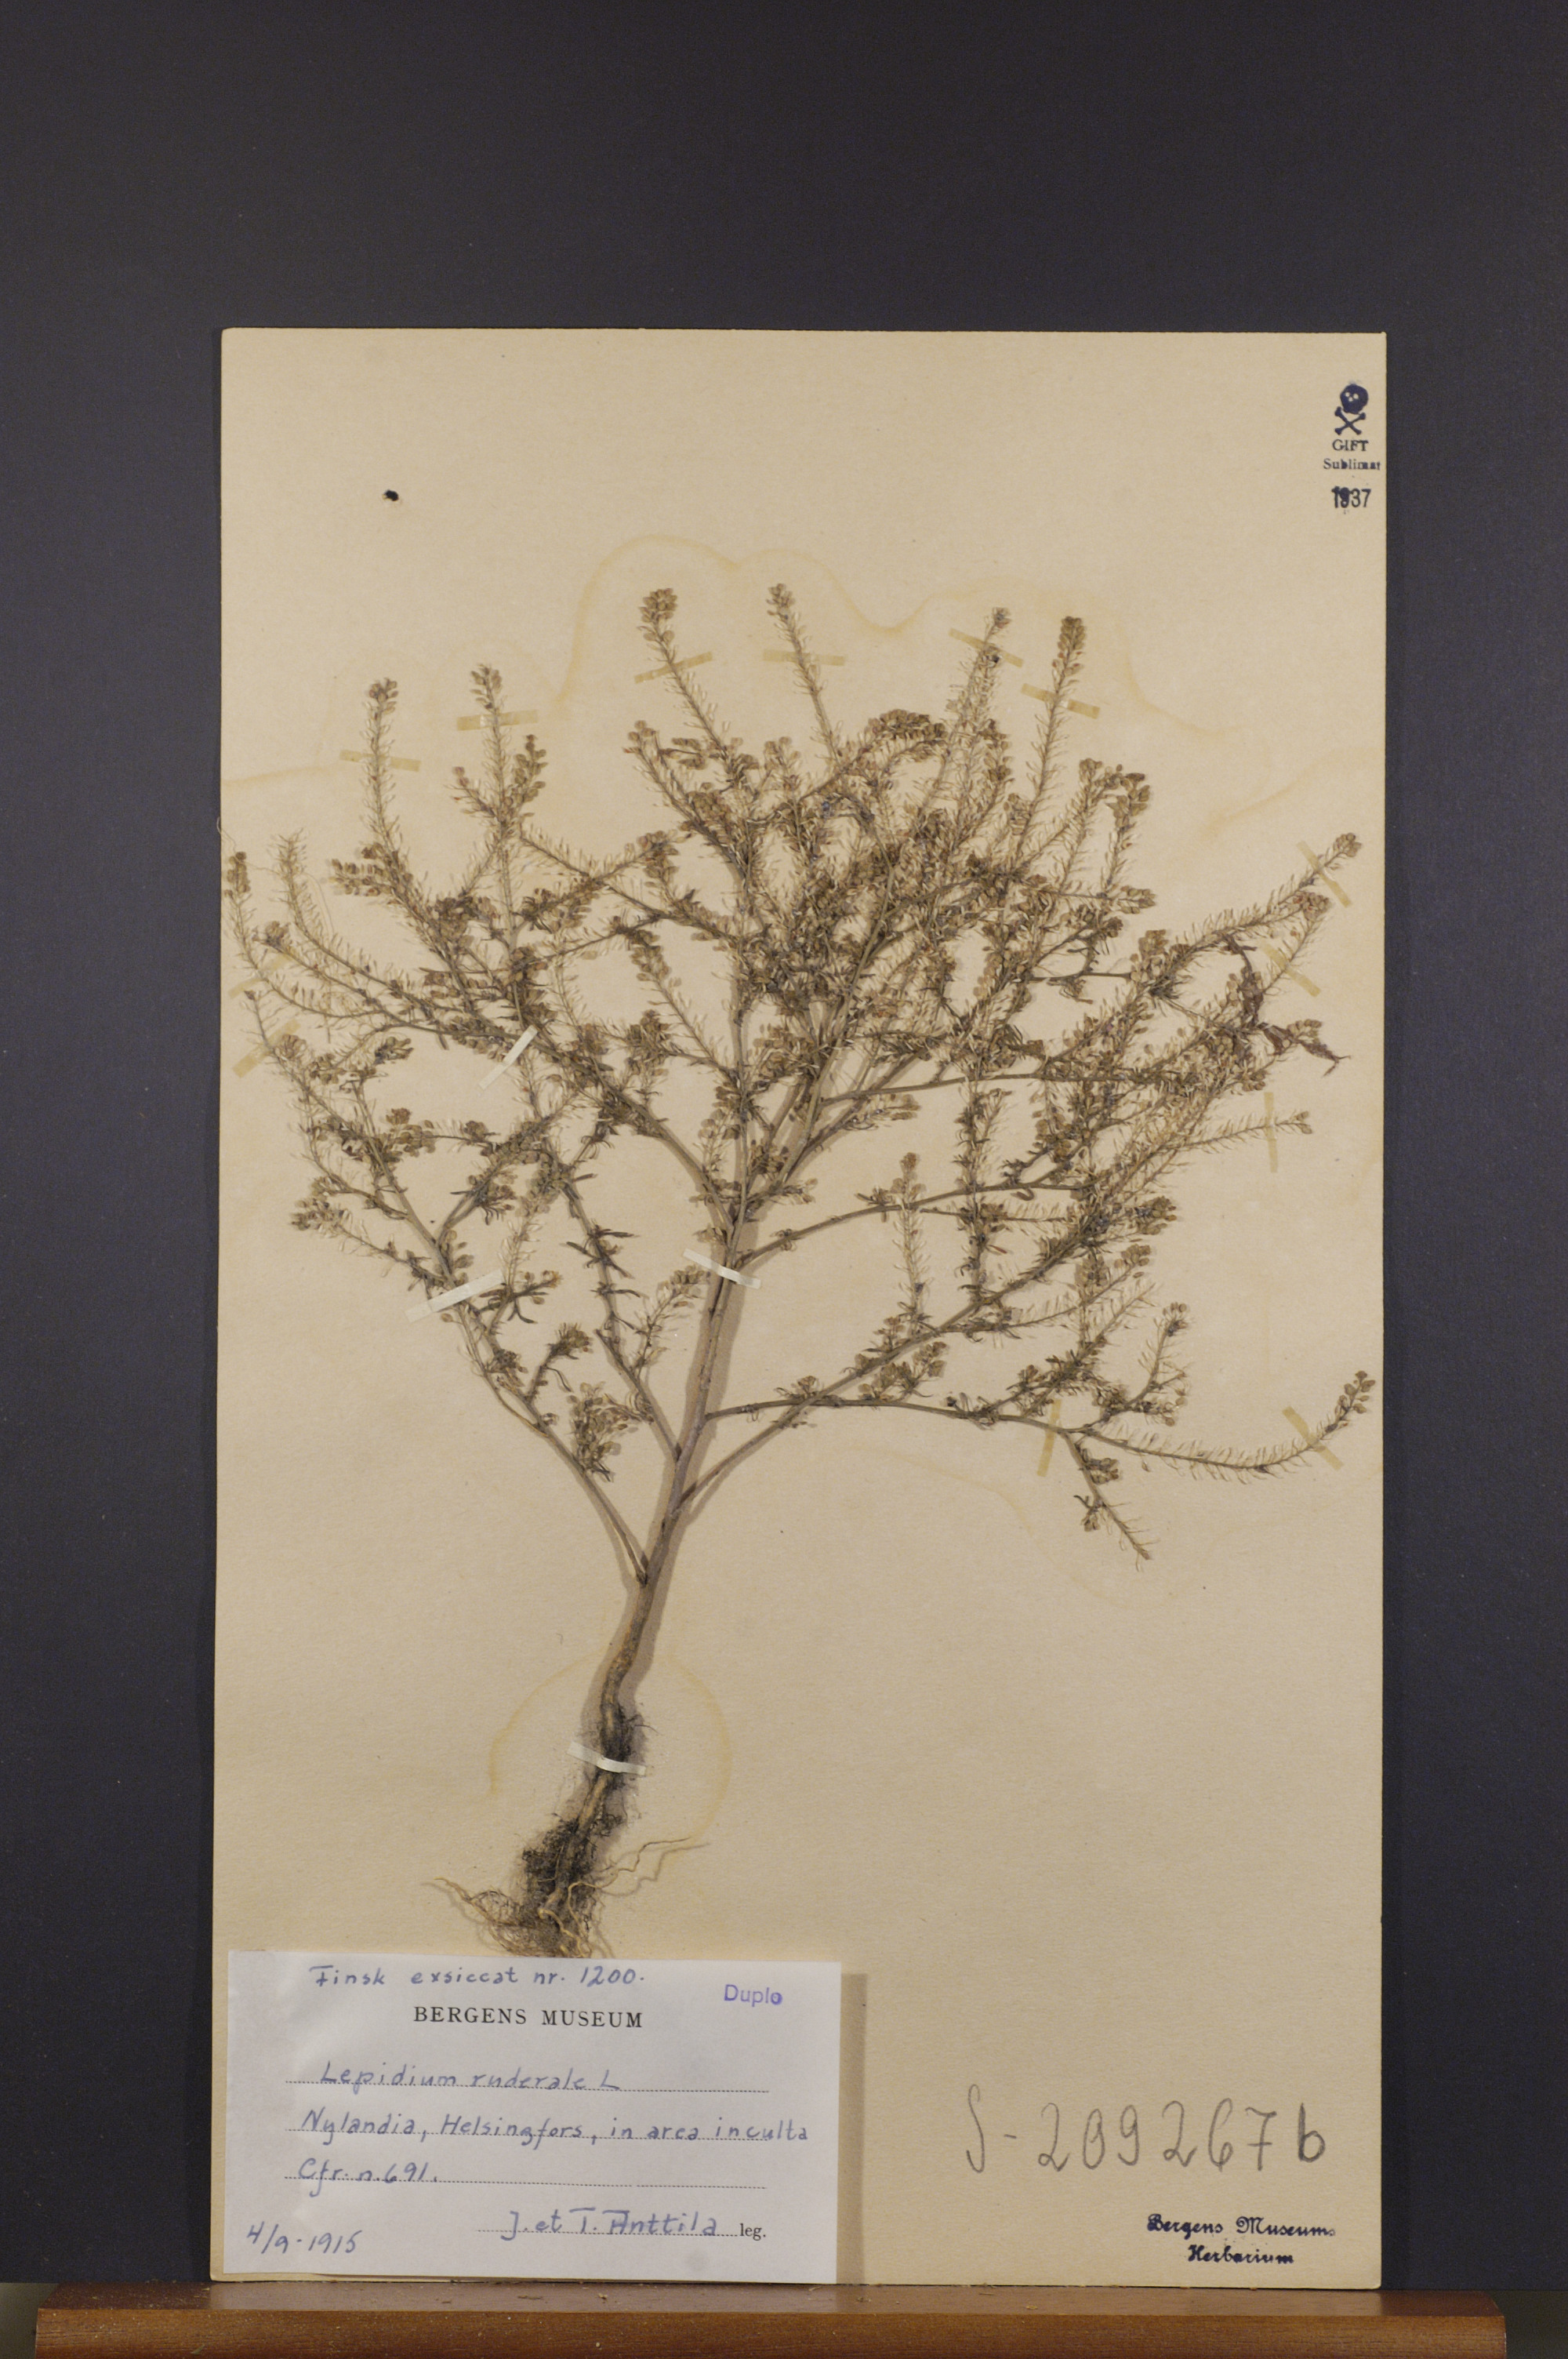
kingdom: Plantae
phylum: Tracheophyta
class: Magnoliopsida
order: Brassicales
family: Brassicaceae
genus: Lepidium
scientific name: Lepidium ruderale
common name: Narrow-leaved pepperwort
